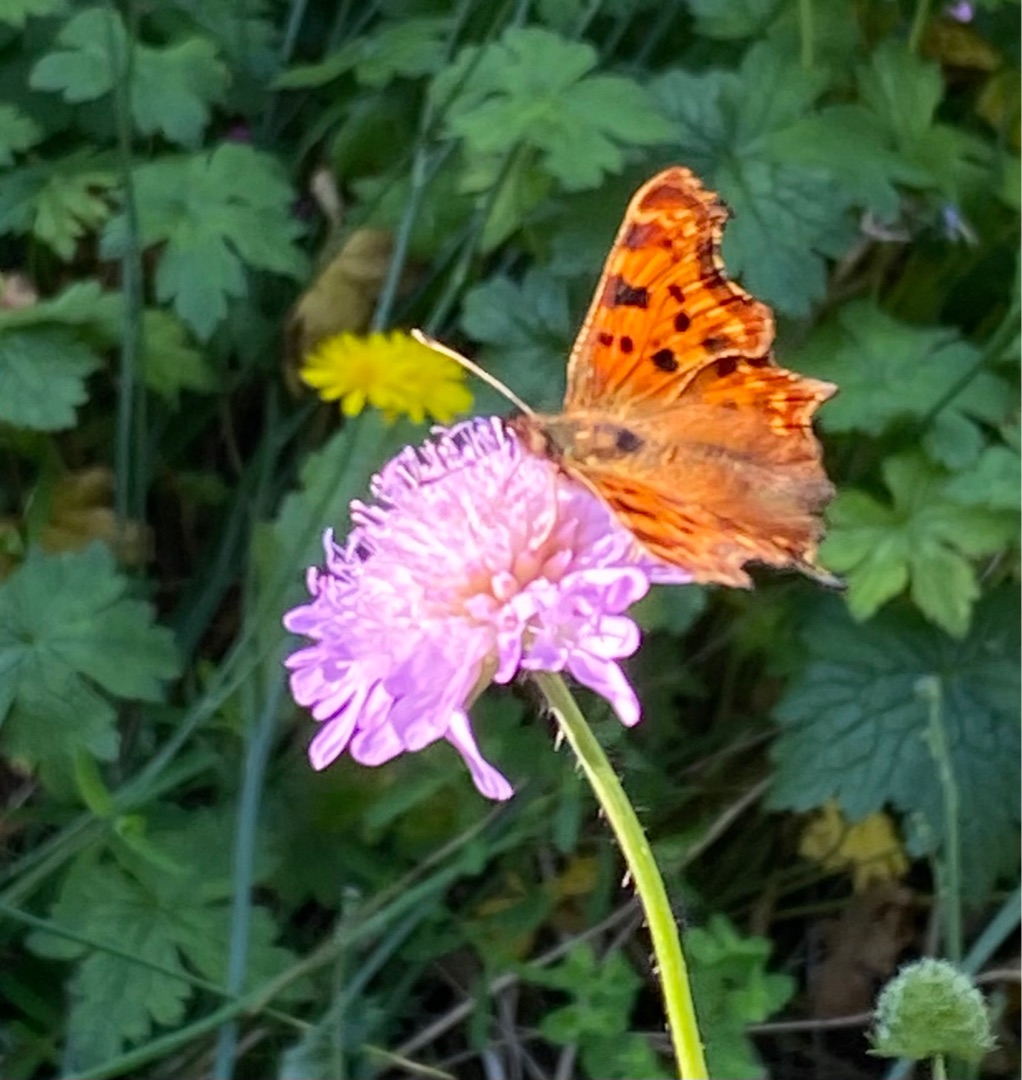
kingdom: Animalia
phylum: Arthropoda
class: Insecta
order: Lepidoptera
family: Nymphalidae
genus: Polygonia
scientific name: Polygonia c-album
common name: Det hvide C
